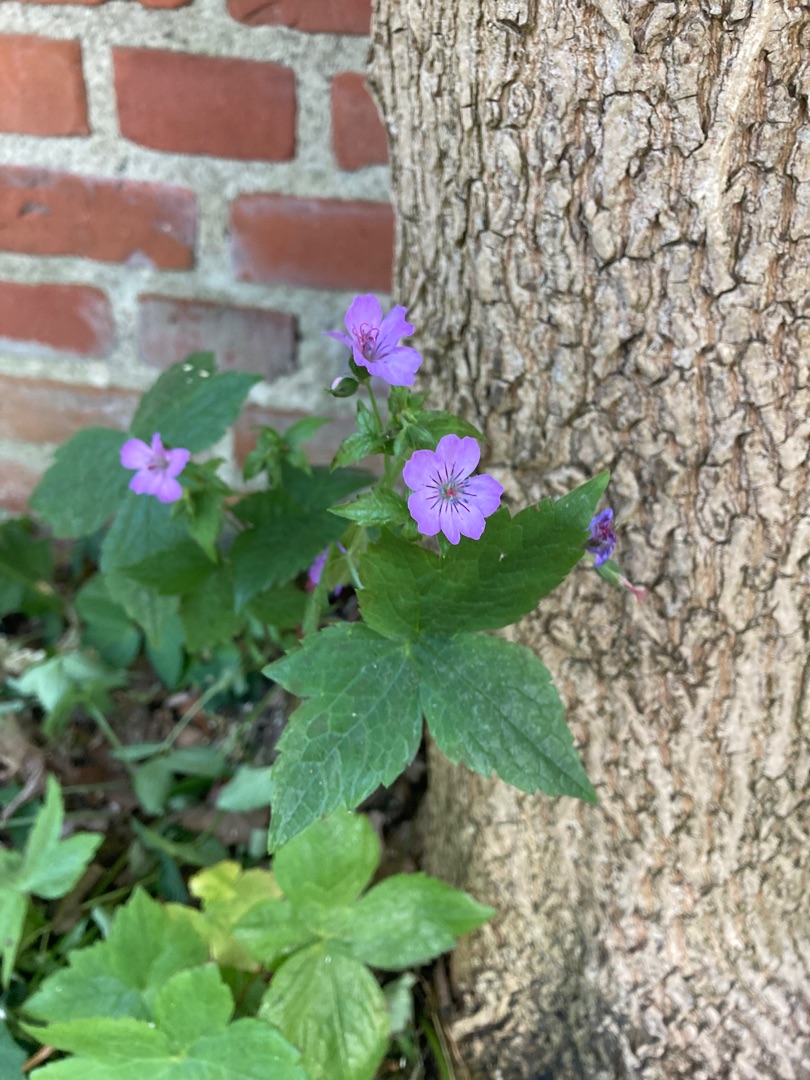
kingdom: Plantae
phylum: Tracheophyta
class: Magnoliopsida
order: Geraniales
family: Geraniaceae
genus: Geranium
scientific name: Geranium nodosum
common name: Knudret storkenæb
